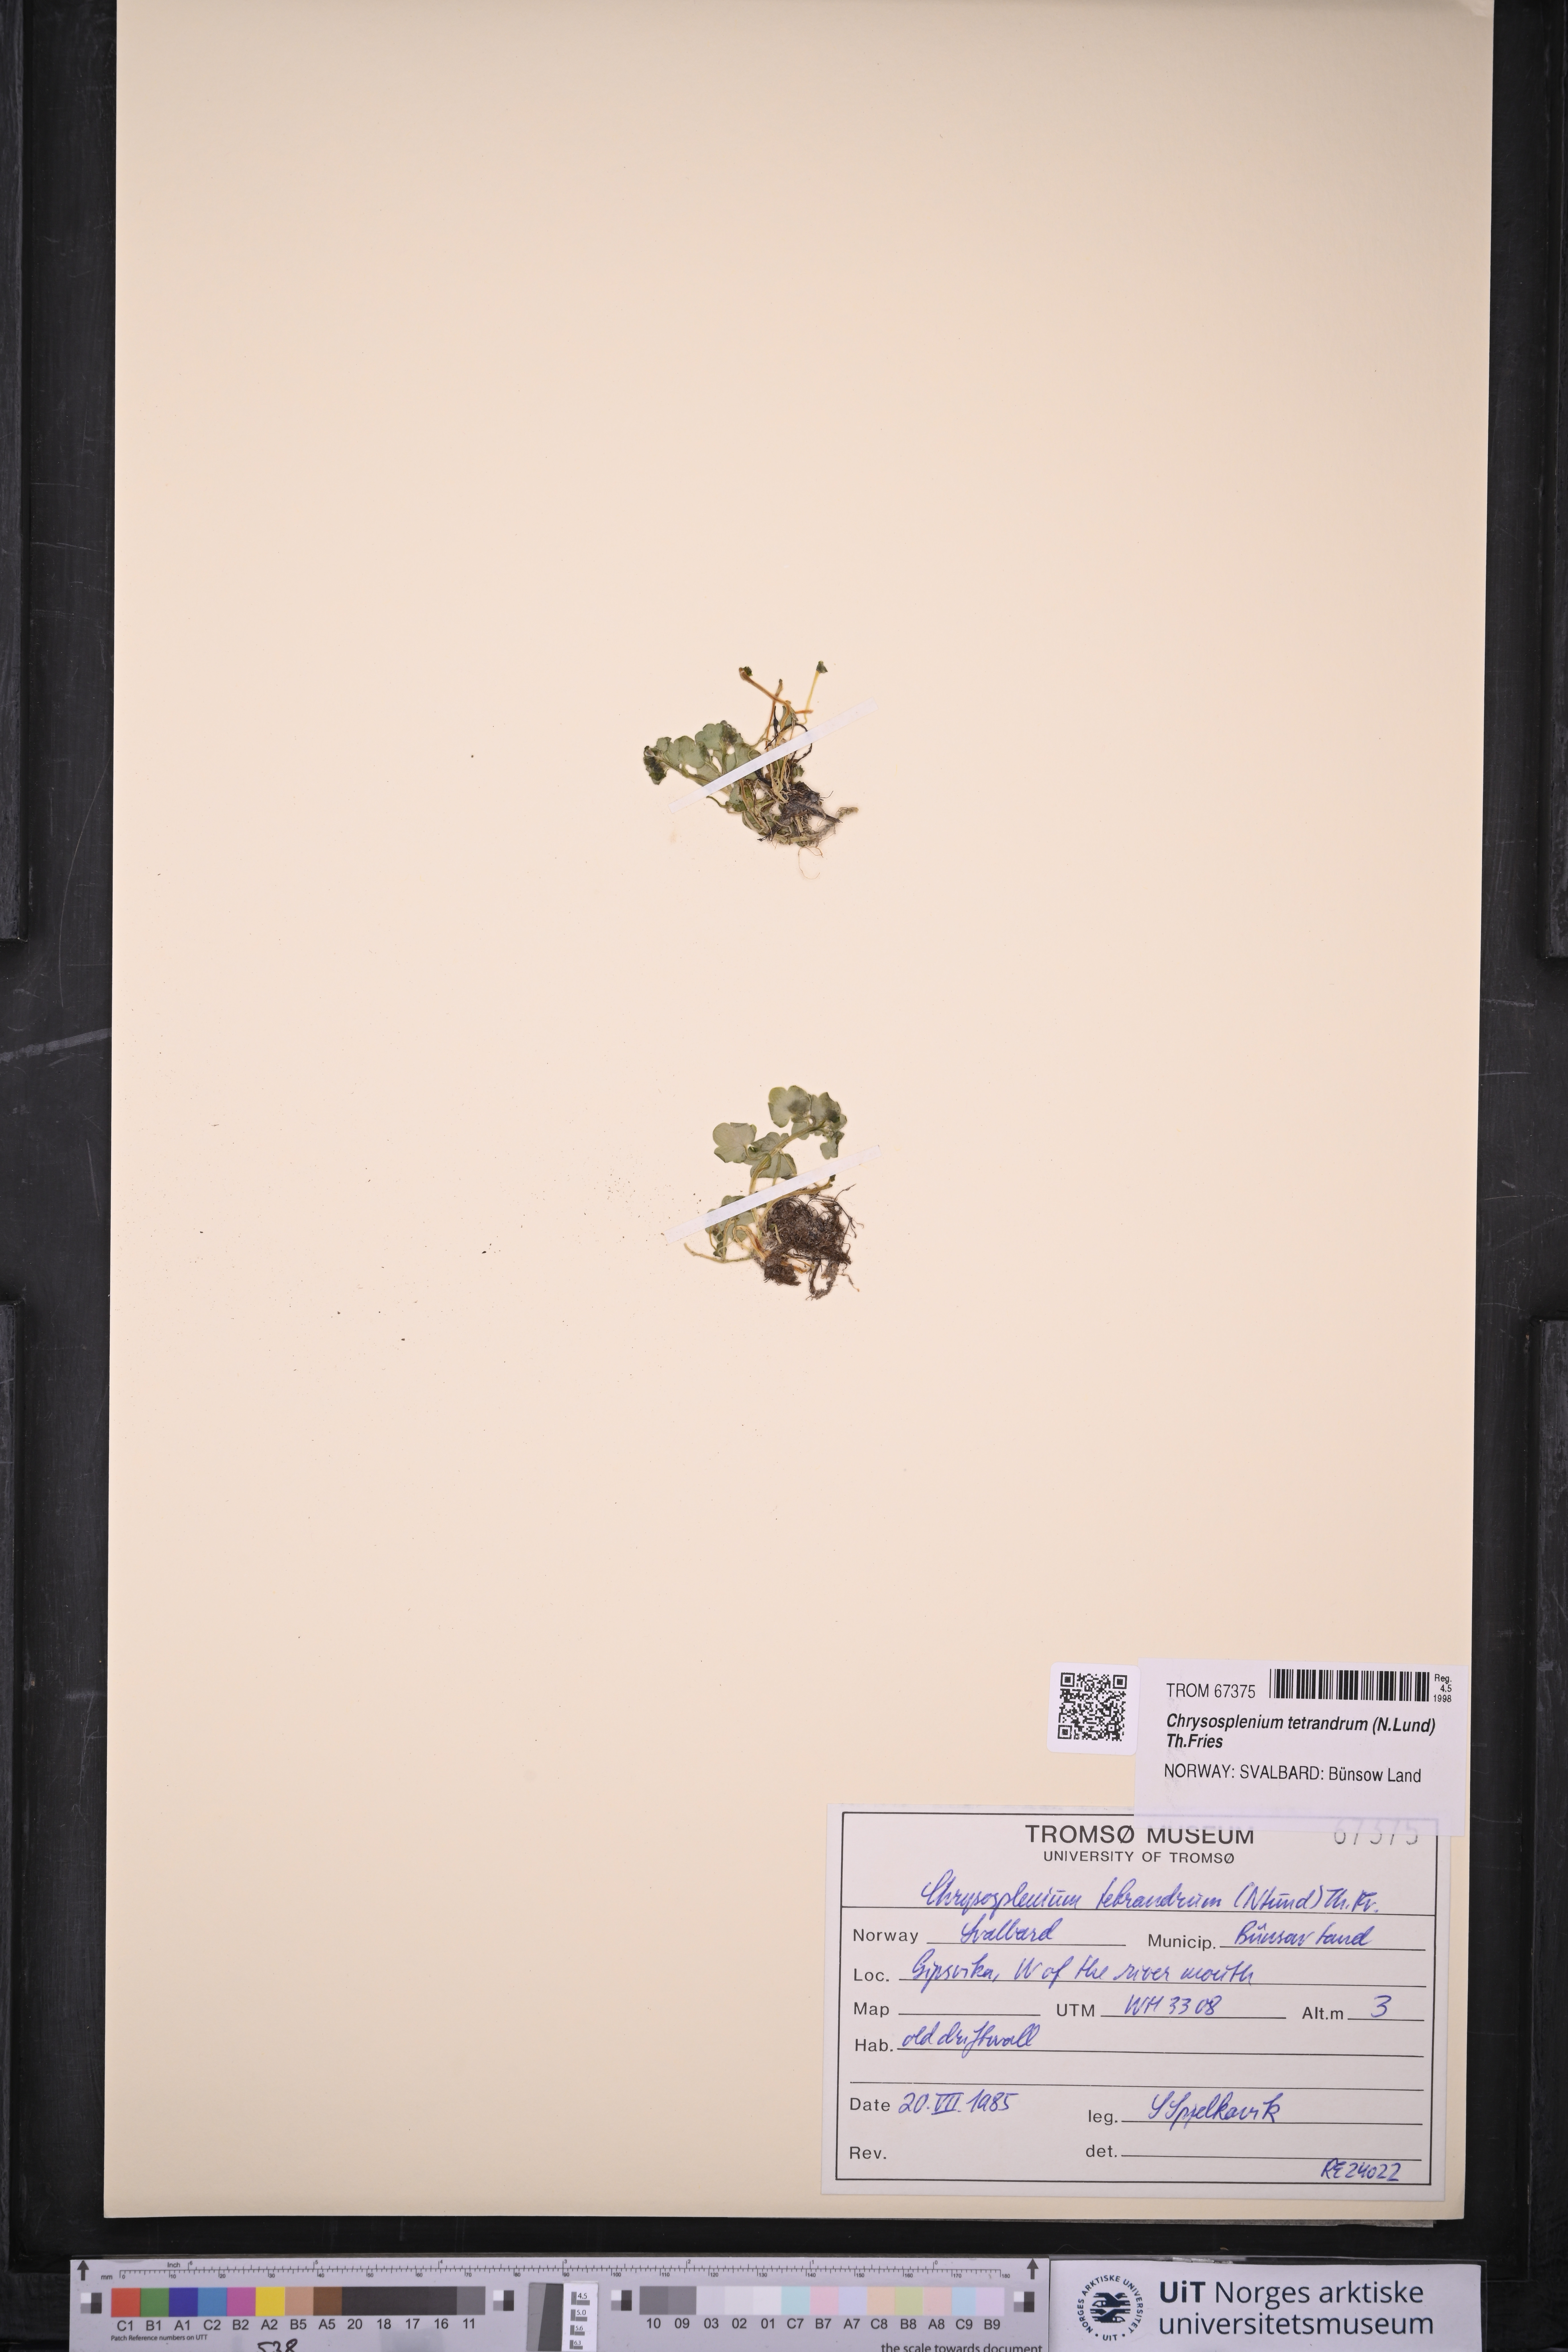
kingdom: Plantae
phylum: Tracheophyta
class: Magnoliopsida
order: Saxifragales
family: Saxifragaceae
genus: Chrysosplenium
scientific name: Chrysosplenium tetrandrum
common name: Green saxifrage
